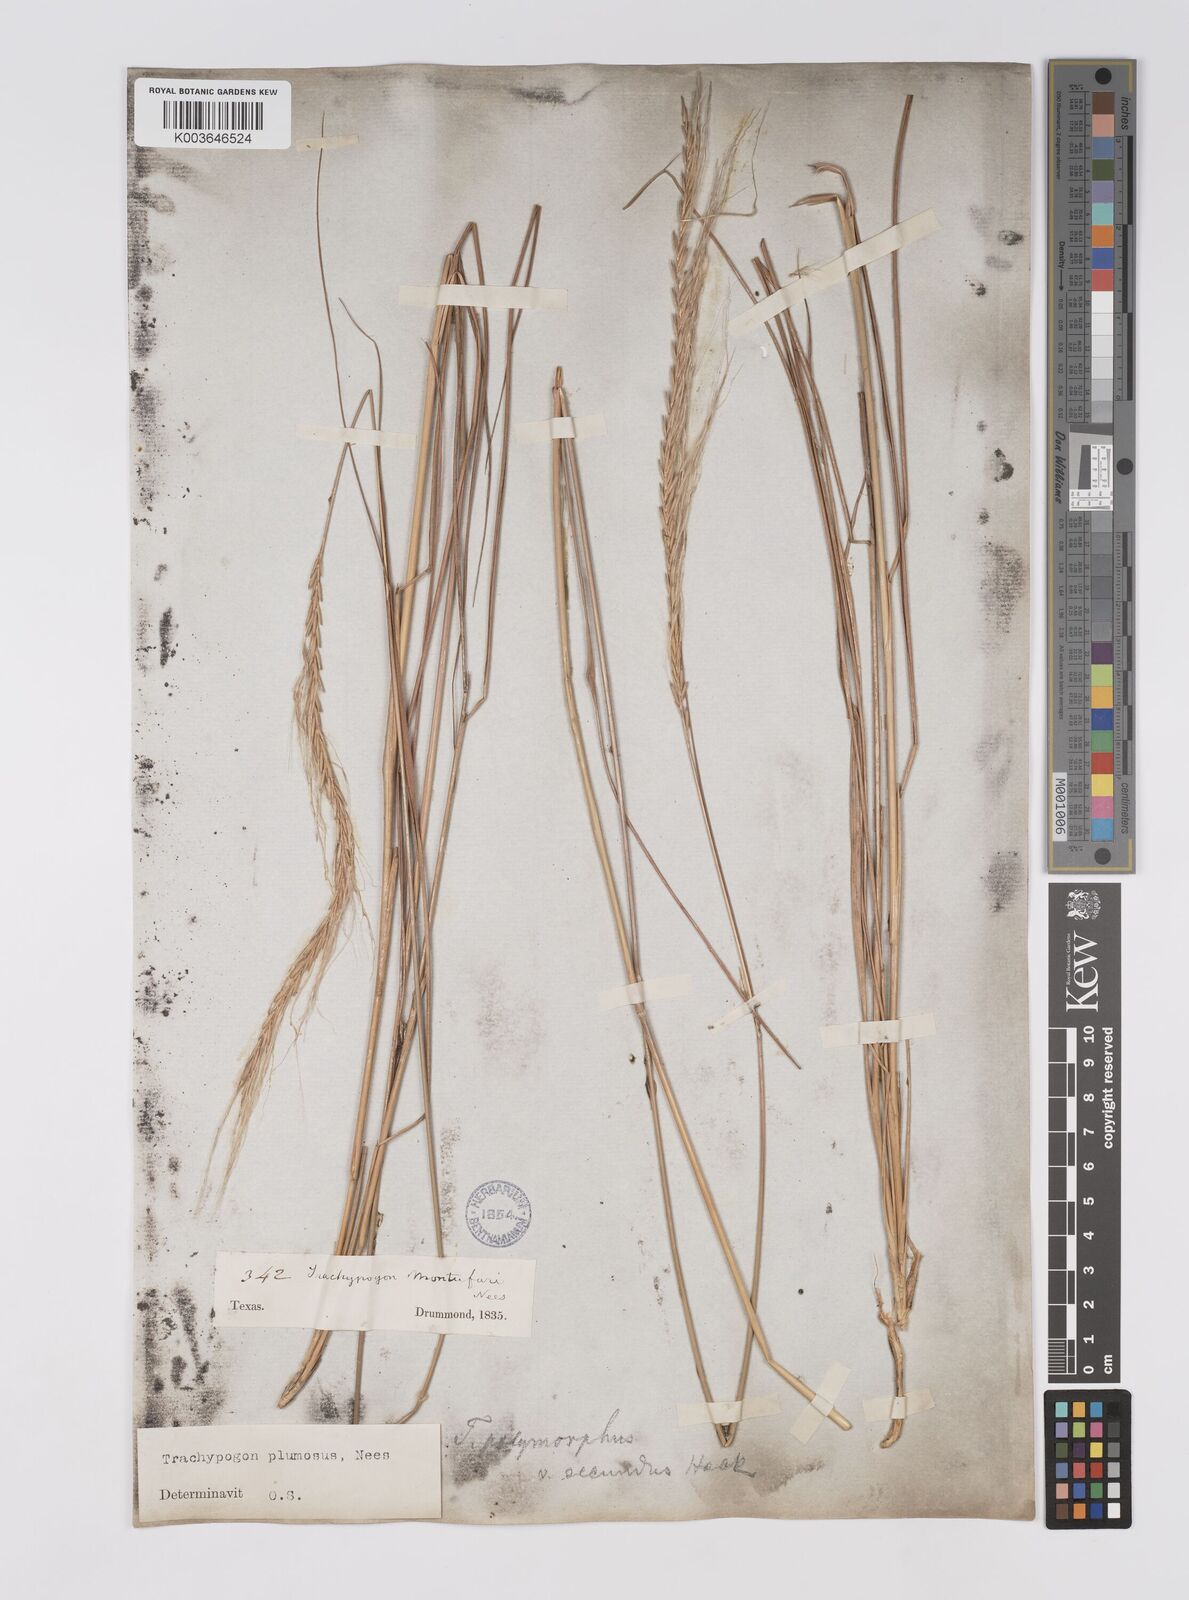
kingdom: Plantae
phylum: Tracheophyta
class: Liliopsida
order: Poales
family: Poaceae
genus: Trachypogon
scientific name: Trachypogon spicatus
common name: Crinkle-awn
